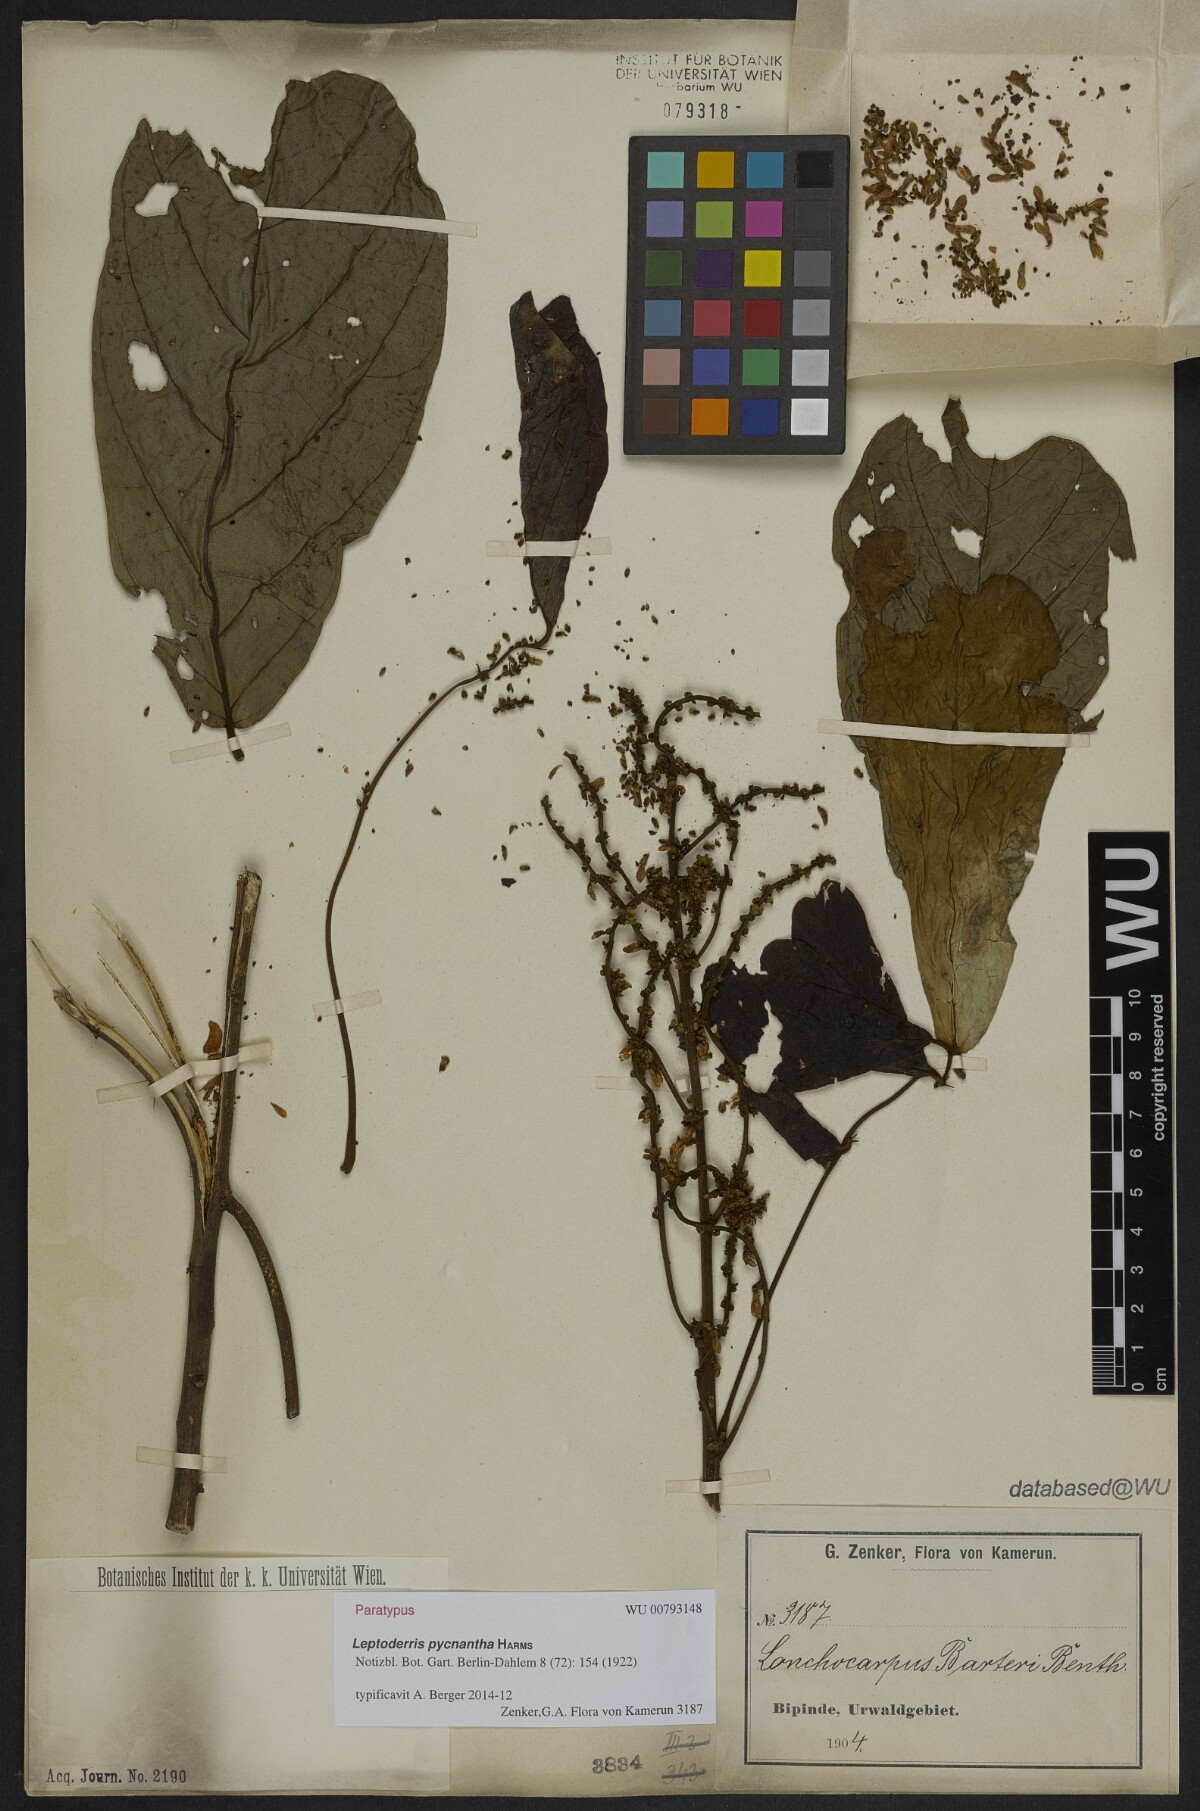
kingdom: Plantae
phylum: Tracheophyta
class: Magnoliopsida
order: Fabales
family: Fabaceae
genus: Leptoderris
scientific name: Leptoderris congolensis
